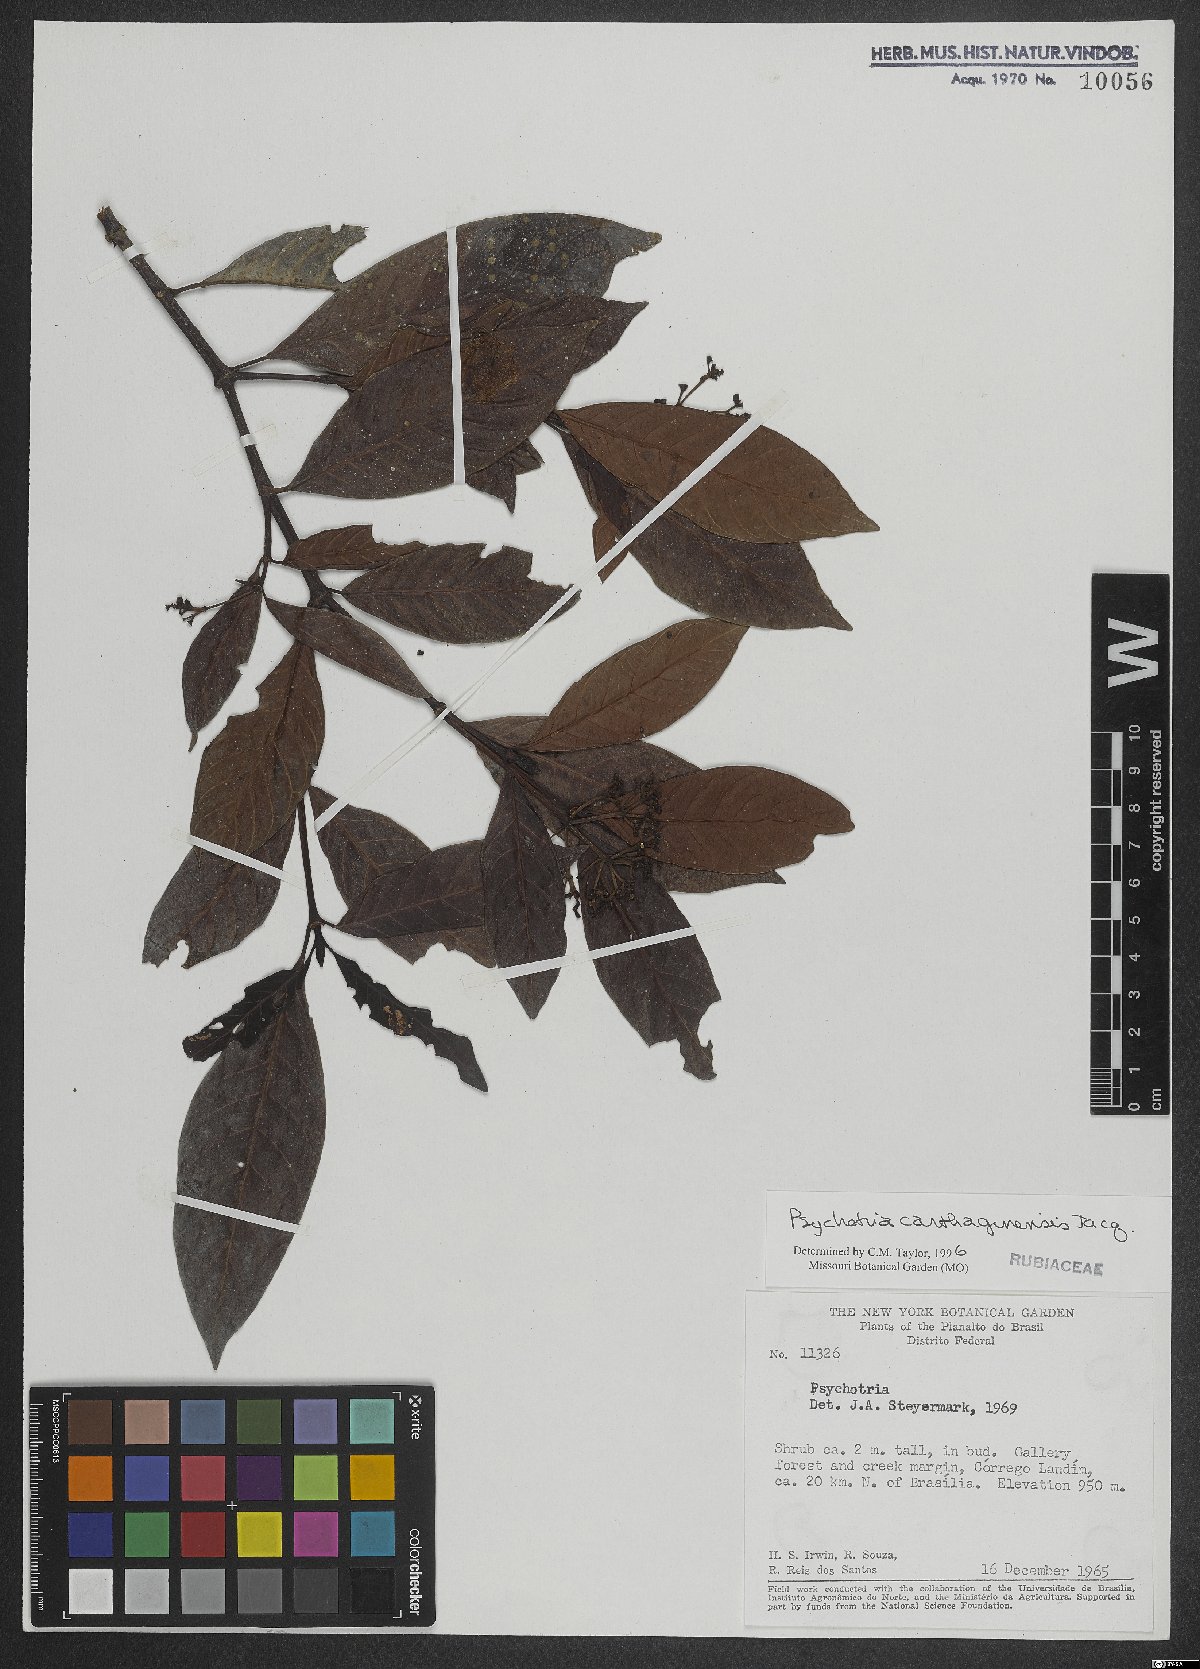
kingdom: Plantae
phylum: Tracheophyta
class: Magnoliopsida
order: Gentianales
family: Rubiaceae
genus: Psychotria
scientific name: Psychotria carthagenensis
